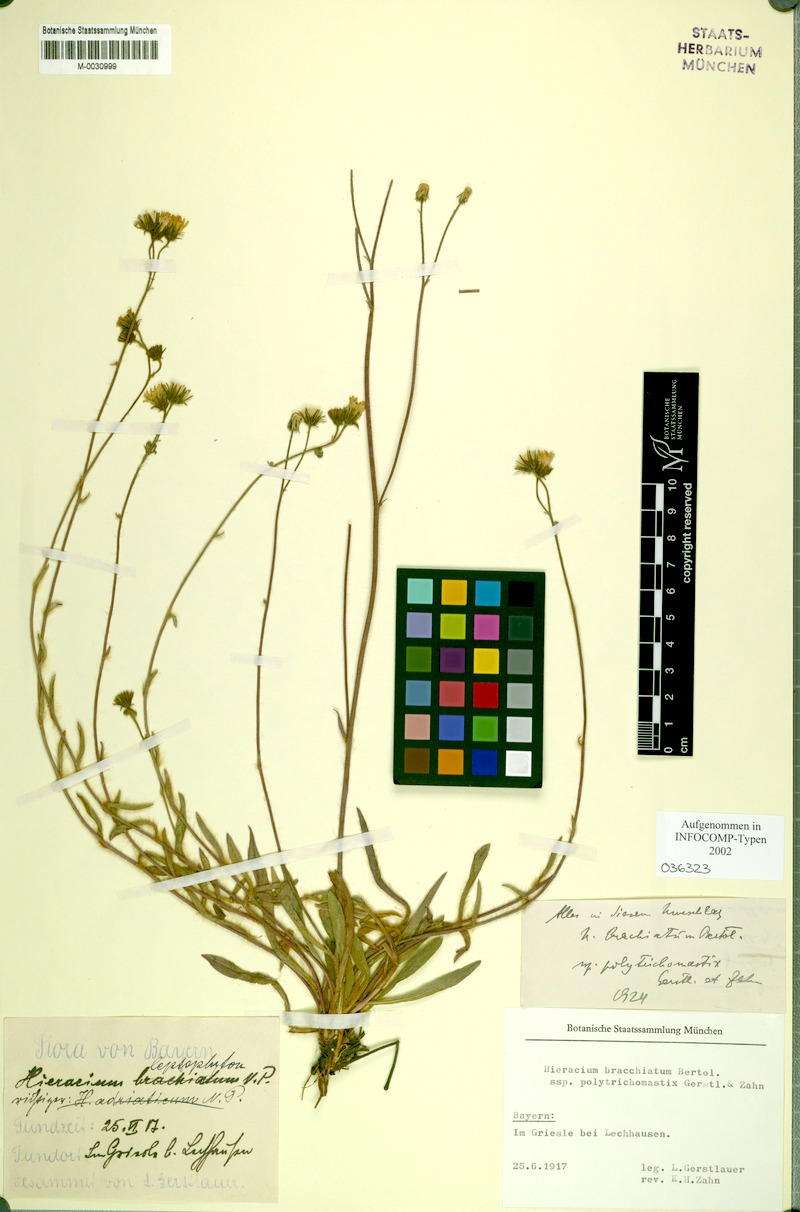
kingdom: Plantae
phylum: Tracheophyta
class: Magnoliopsida
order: Asterales
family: Asteraceae
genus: Pilosella
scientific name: Pilosella acutifolia
